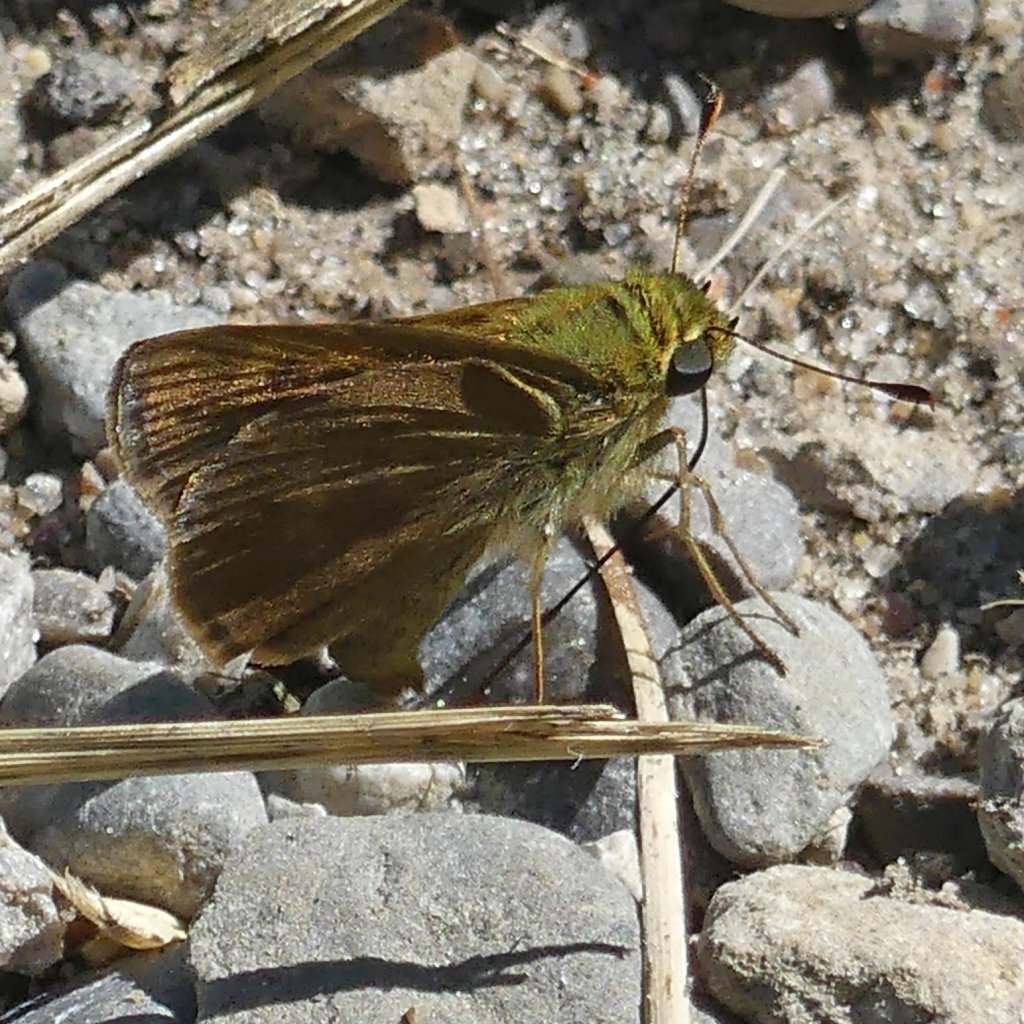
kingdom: Animalia
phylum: Arthropoda
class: Insecta
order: Lepidoptera
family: Hesperiidae
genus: Euphyes
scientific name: Euphyes vestris
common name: Dun Skipper
